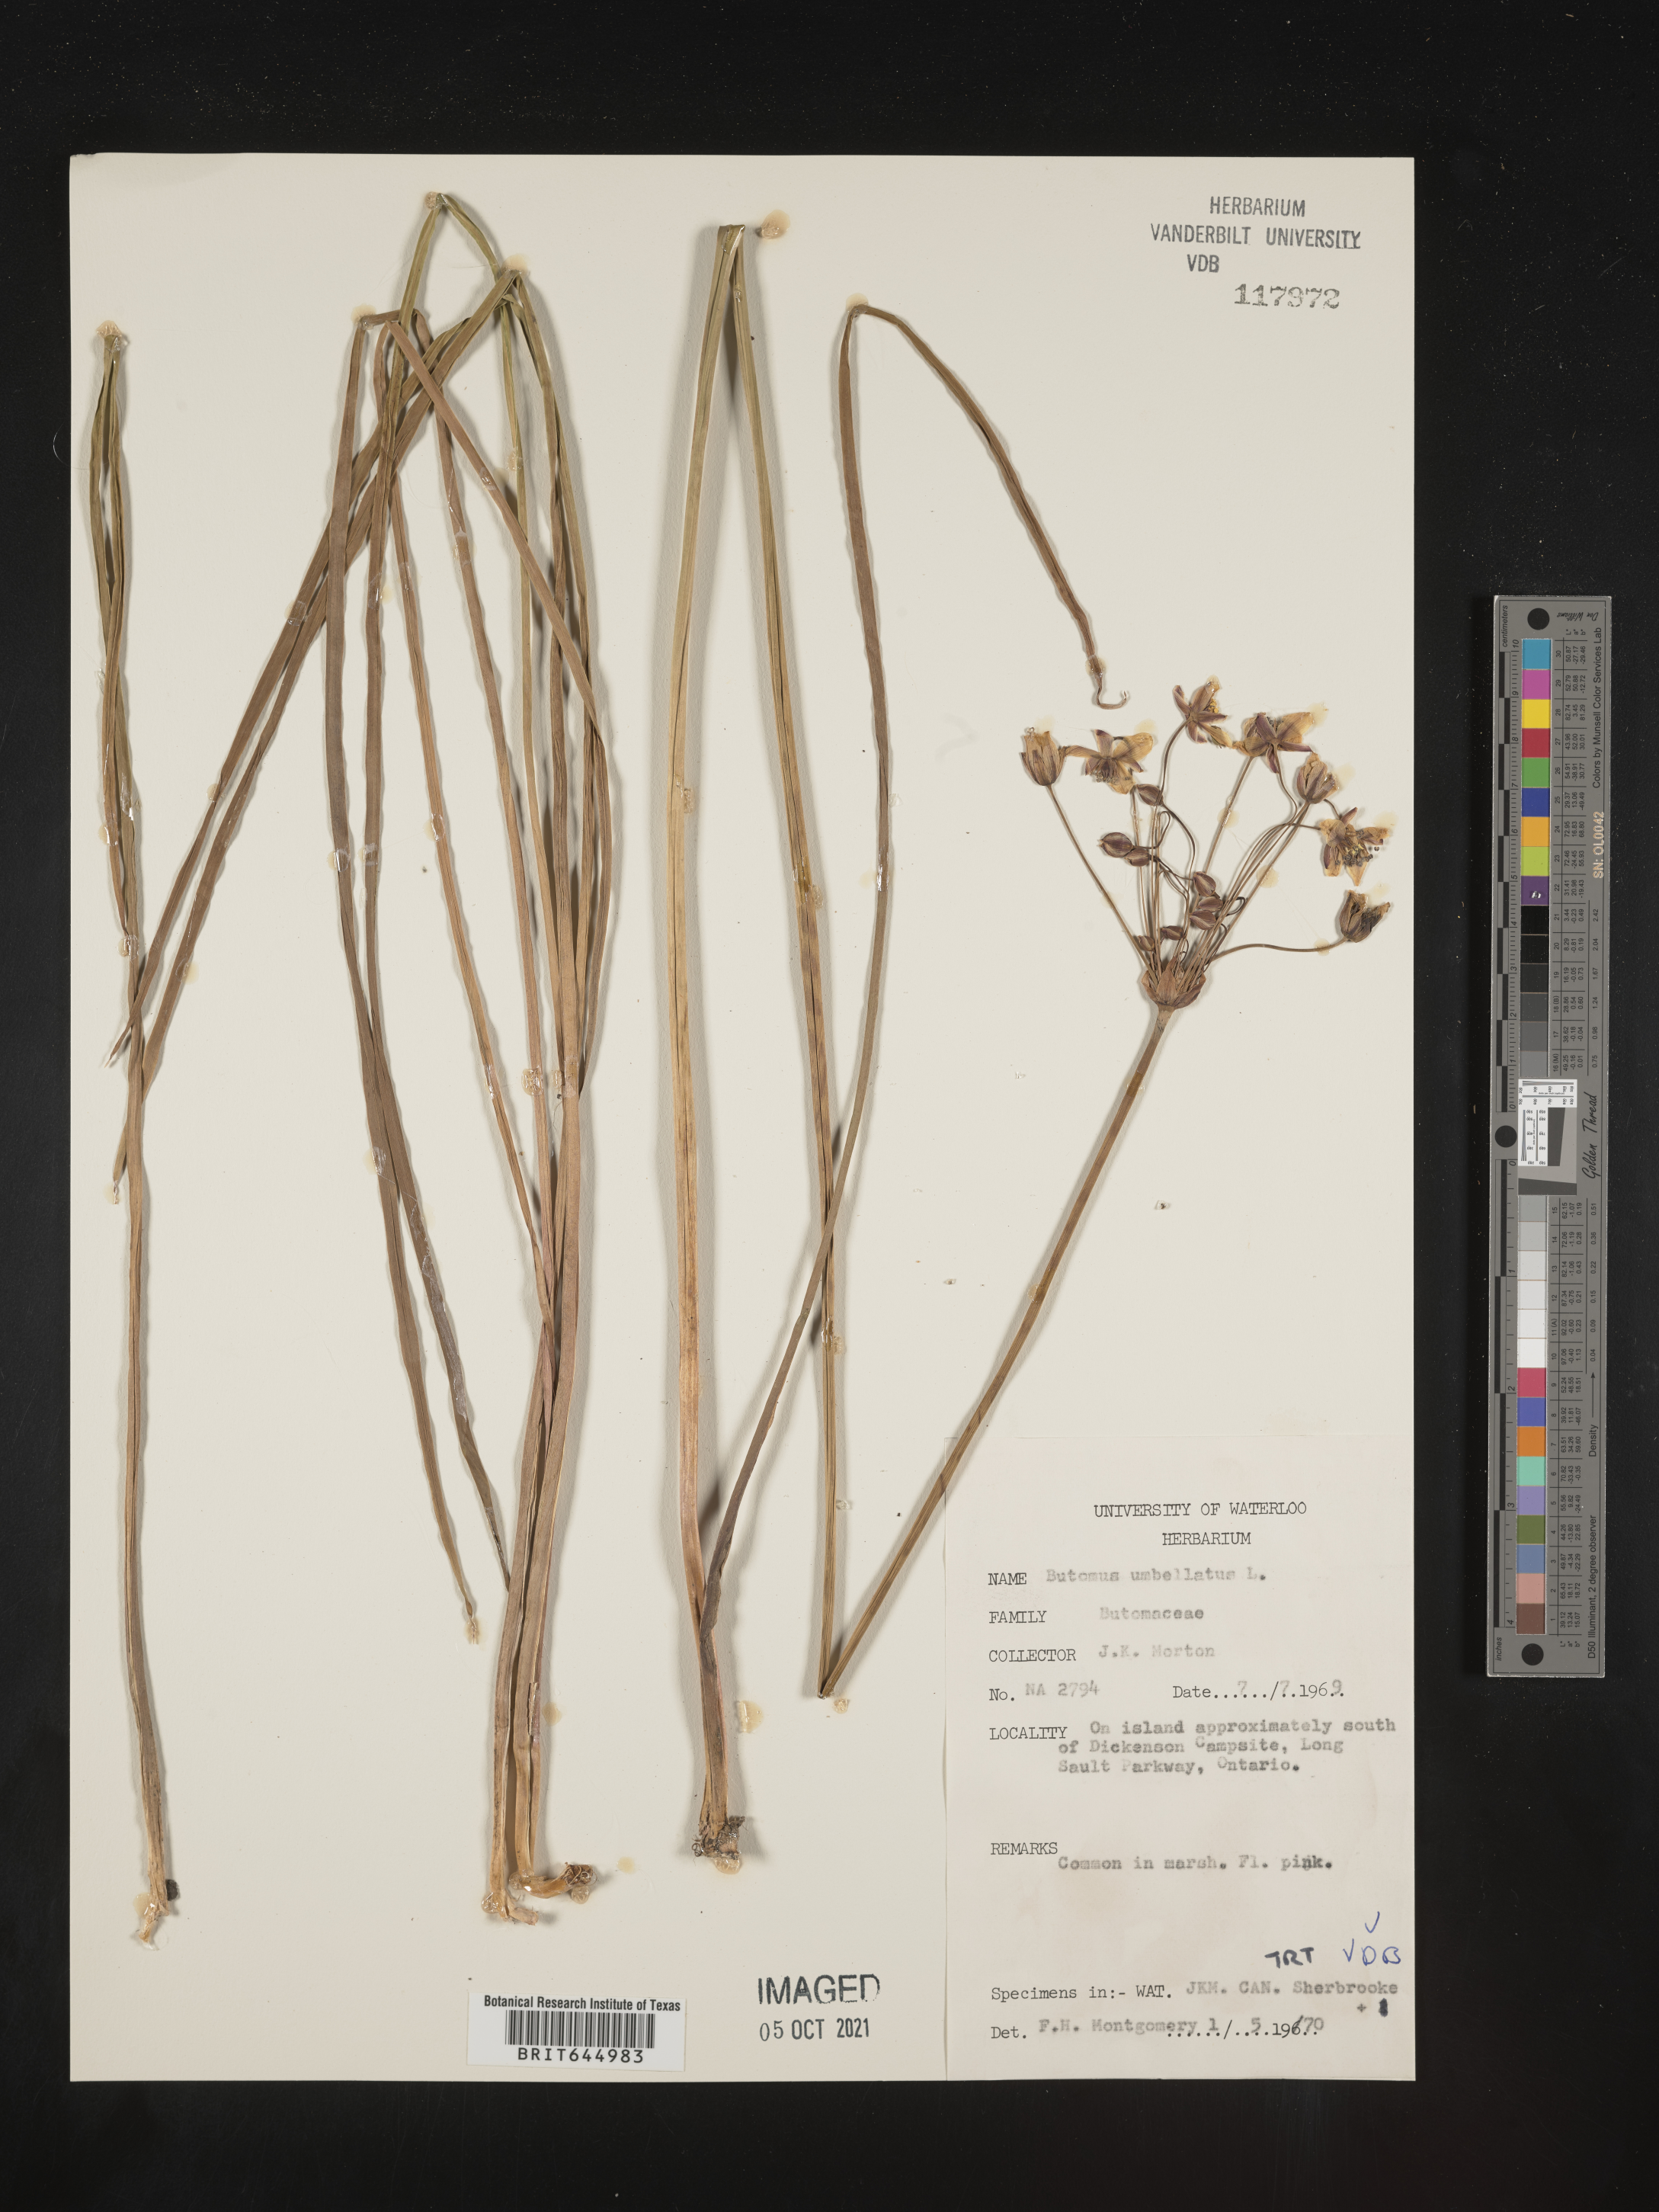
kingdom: Plantae
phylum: Tracheophyta
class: Liliopsida
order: Alismatales
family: Butomaceae
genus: Butomus
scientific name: Butomus umbellatus
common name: Flowering-rush
